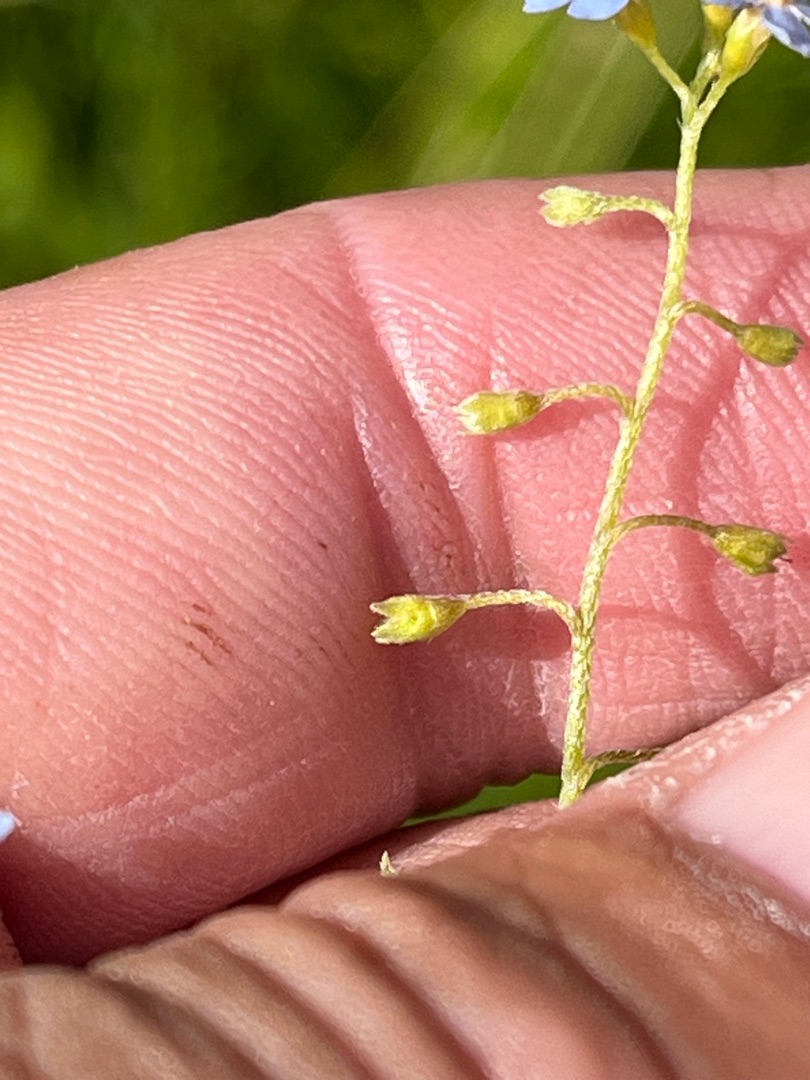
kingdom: Plantae
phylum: Tracheophyta
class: Magnoliopsida
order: Boraginales
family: Boraginaceae
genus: Myosotis
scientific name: Myosotis scorpioides
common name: Eng-forglemmigej
